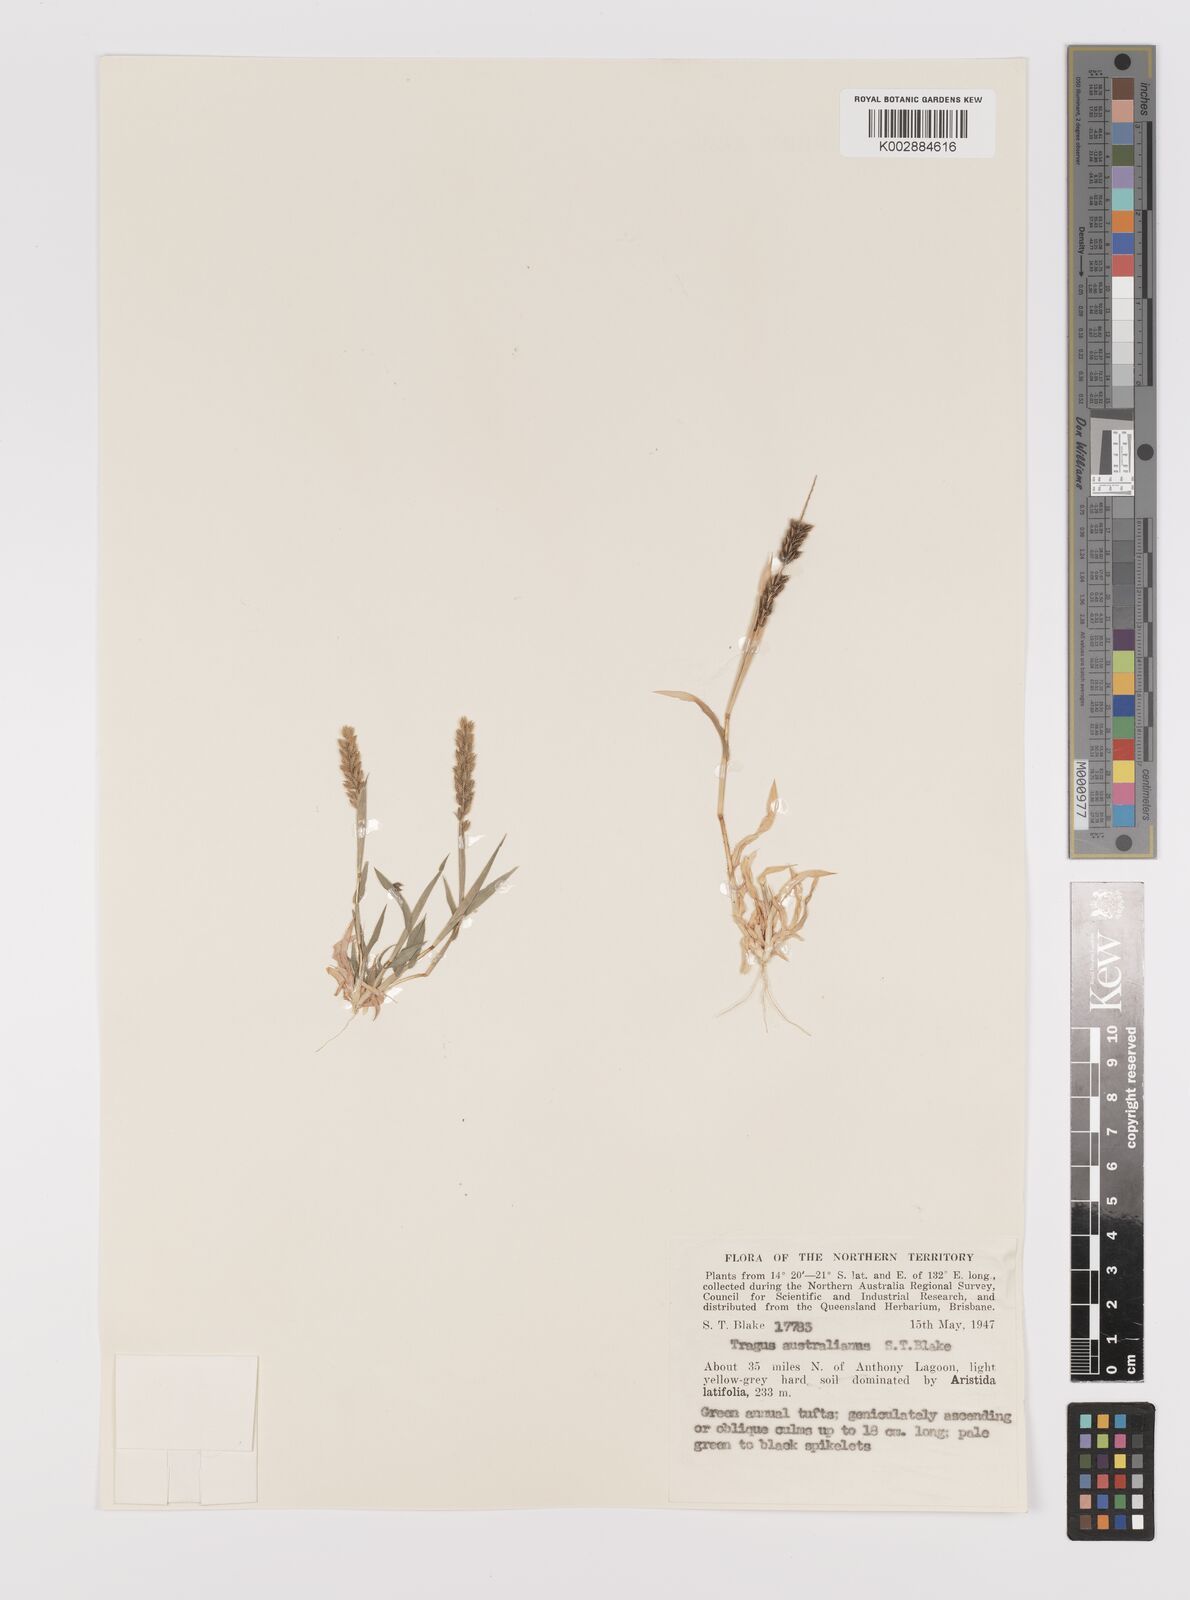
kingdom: Plantae
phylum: Tracheophyta
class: Liliopsida
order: Poales
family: Poaceae
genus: Tragus
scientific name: Tragus australianus
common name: Australian bur-grass
